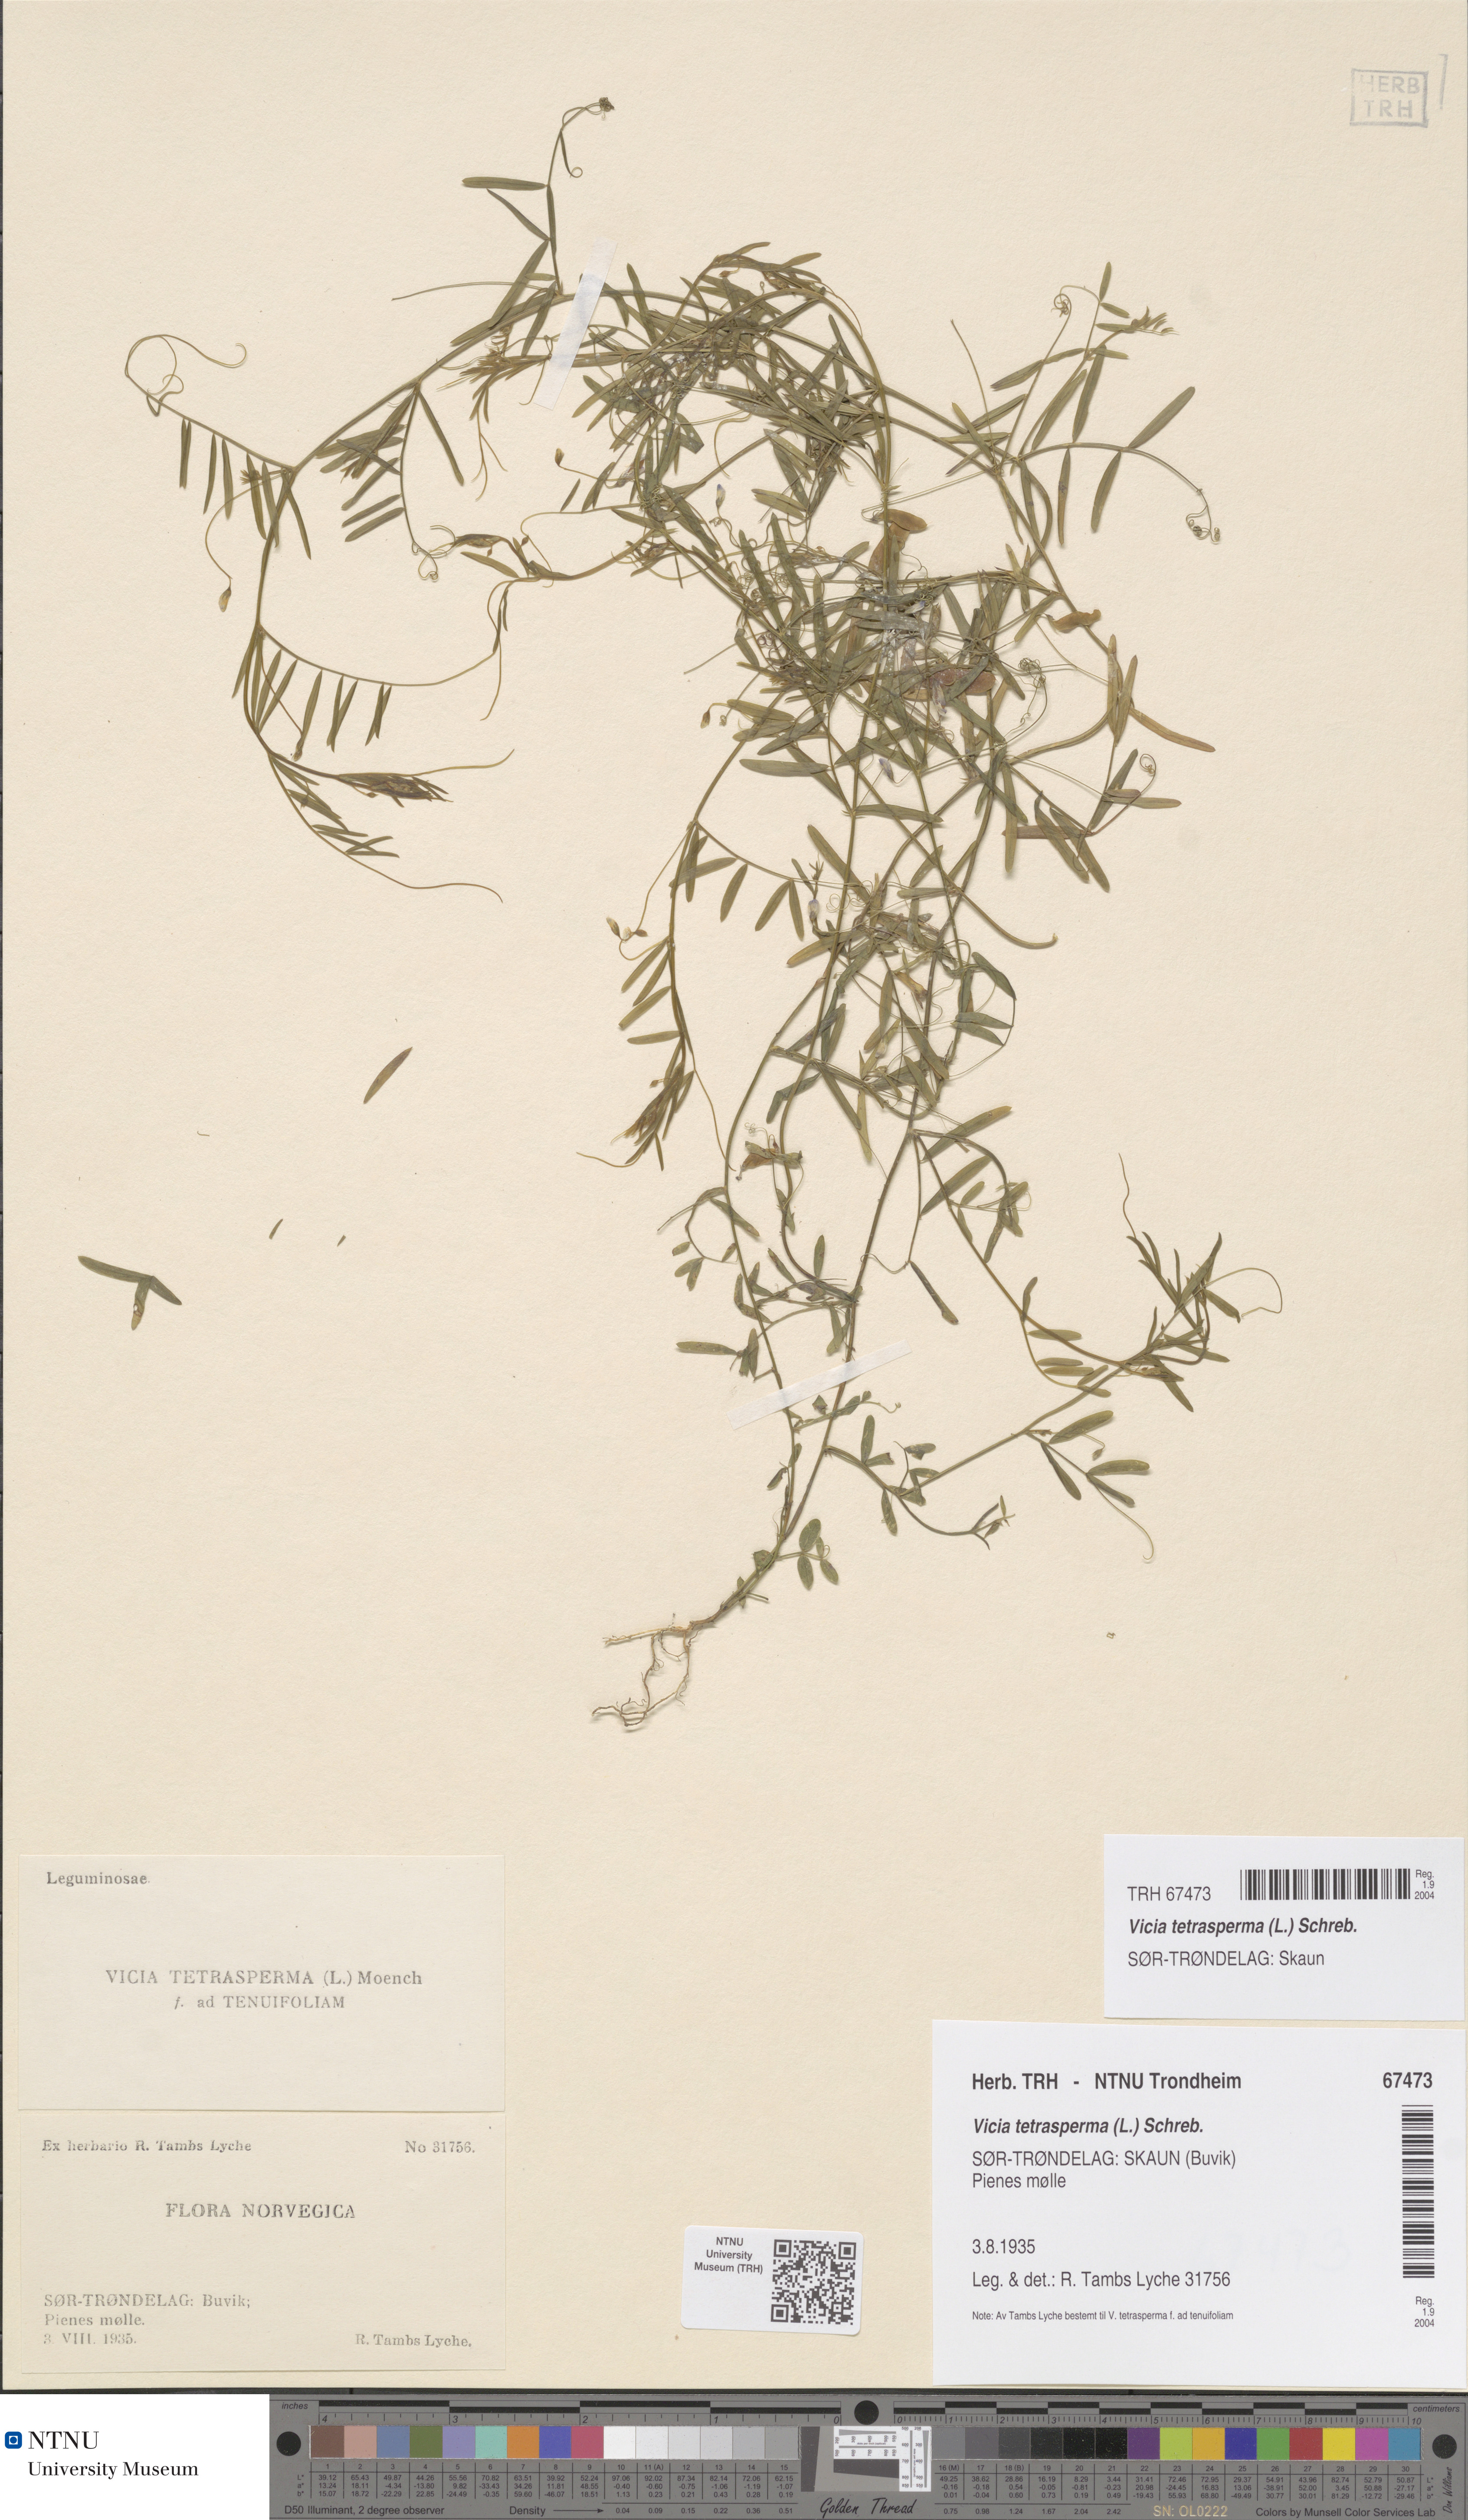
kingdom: Plantae
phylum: Tracheophyta
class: Magnoliopsida
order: Fabales
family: Fabaceae
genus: Vicia
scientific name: Vicia tetrasperma
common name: Smooth tare
